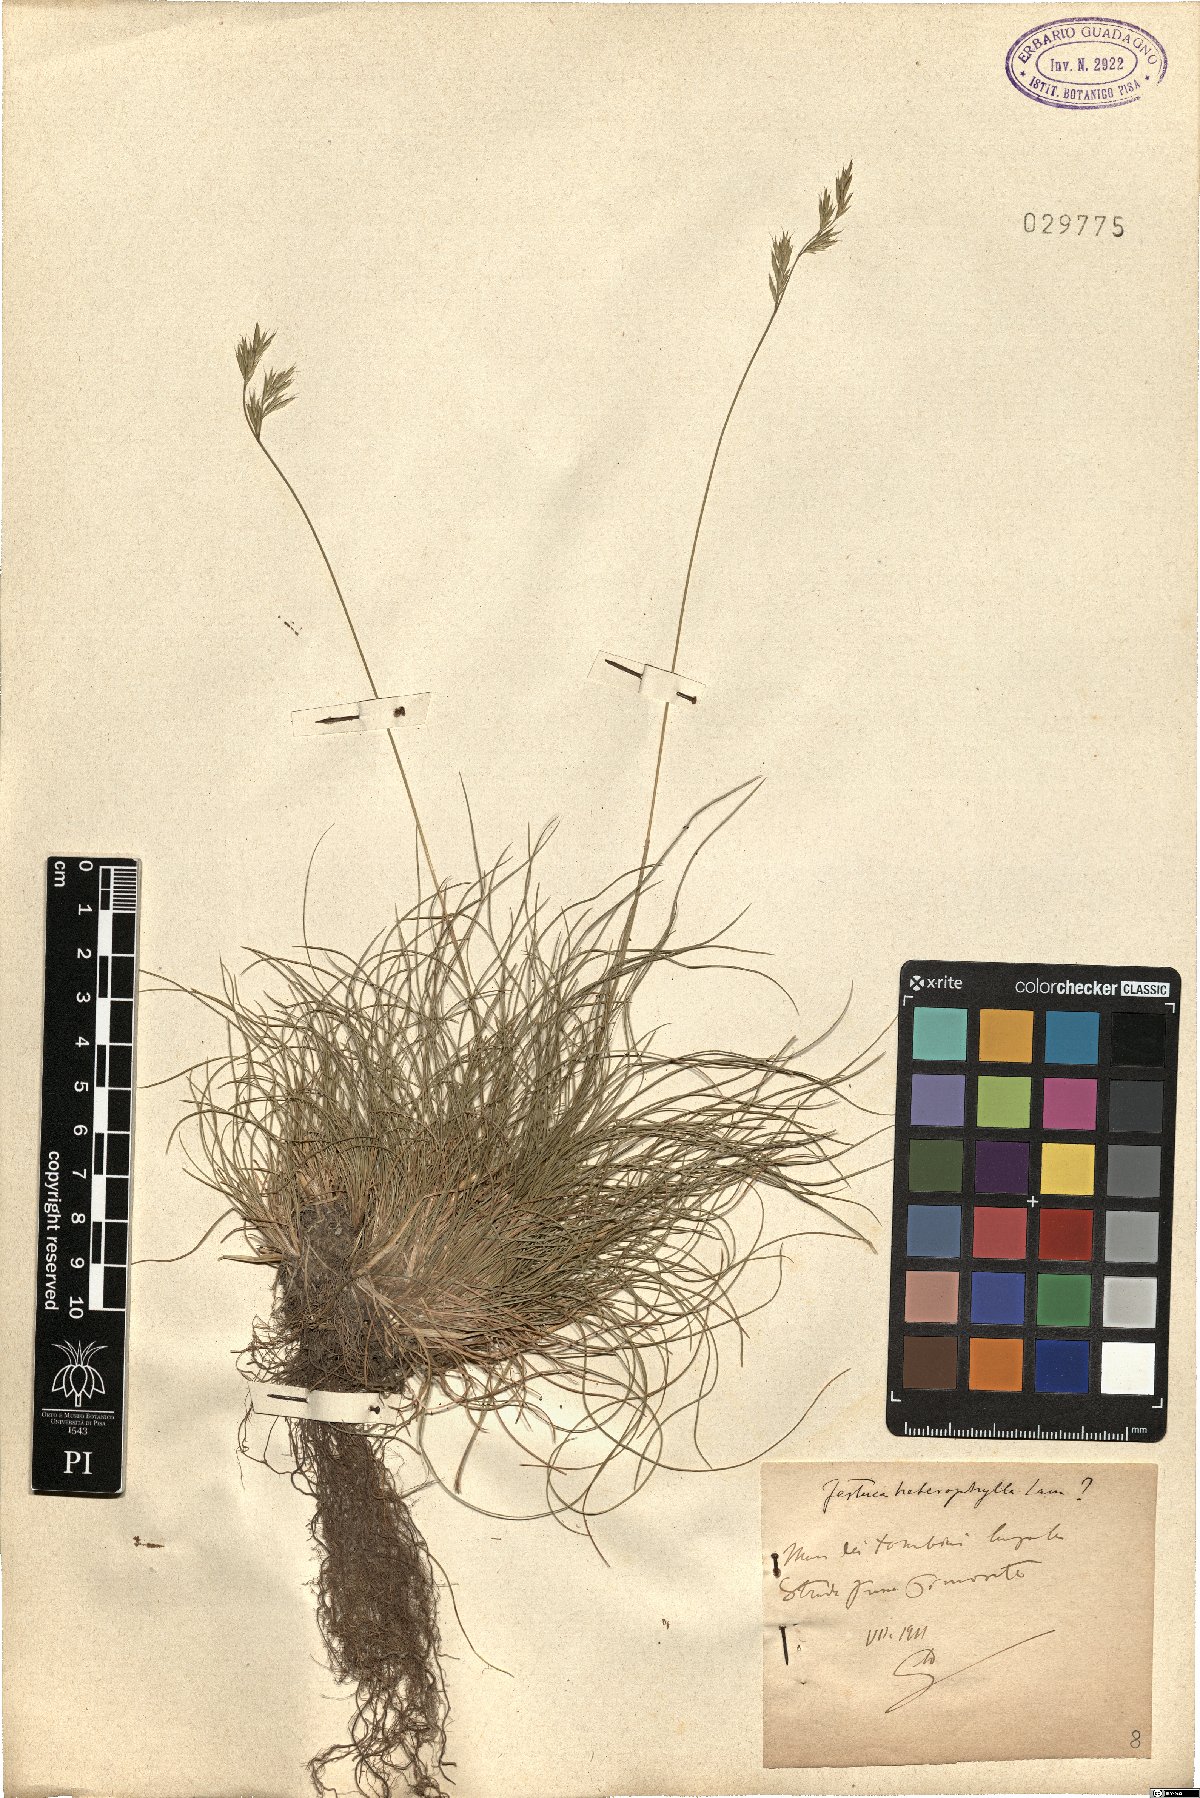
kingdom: Plantae
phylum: Tracheophyta
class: Liliopsida
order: Poales
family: Poaceae
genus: Festuca
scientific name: Festuca heterophylla
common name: Various-leaved fescue
